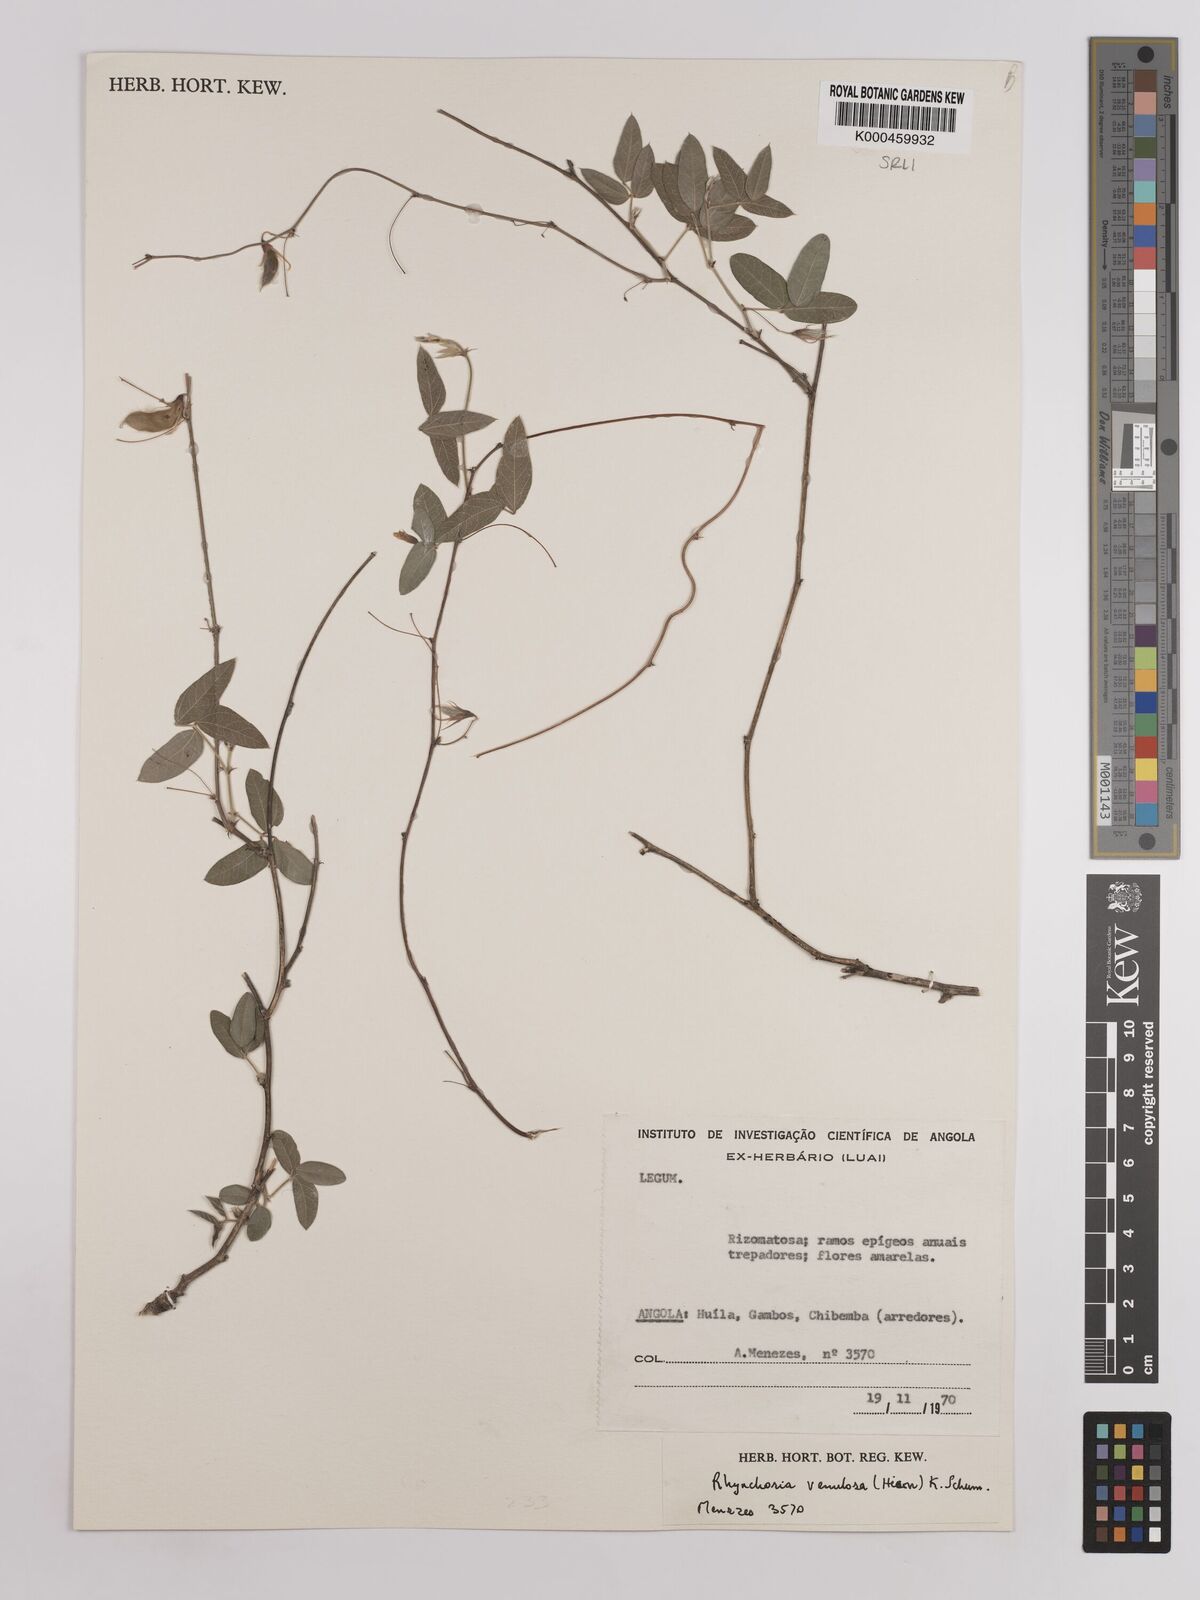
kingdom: Plantae
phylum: Tracheophyta
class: Magnoliopsida
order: Fabales
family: Fabaceae
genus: Rhynchosia
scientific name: Rhynchosia totta
